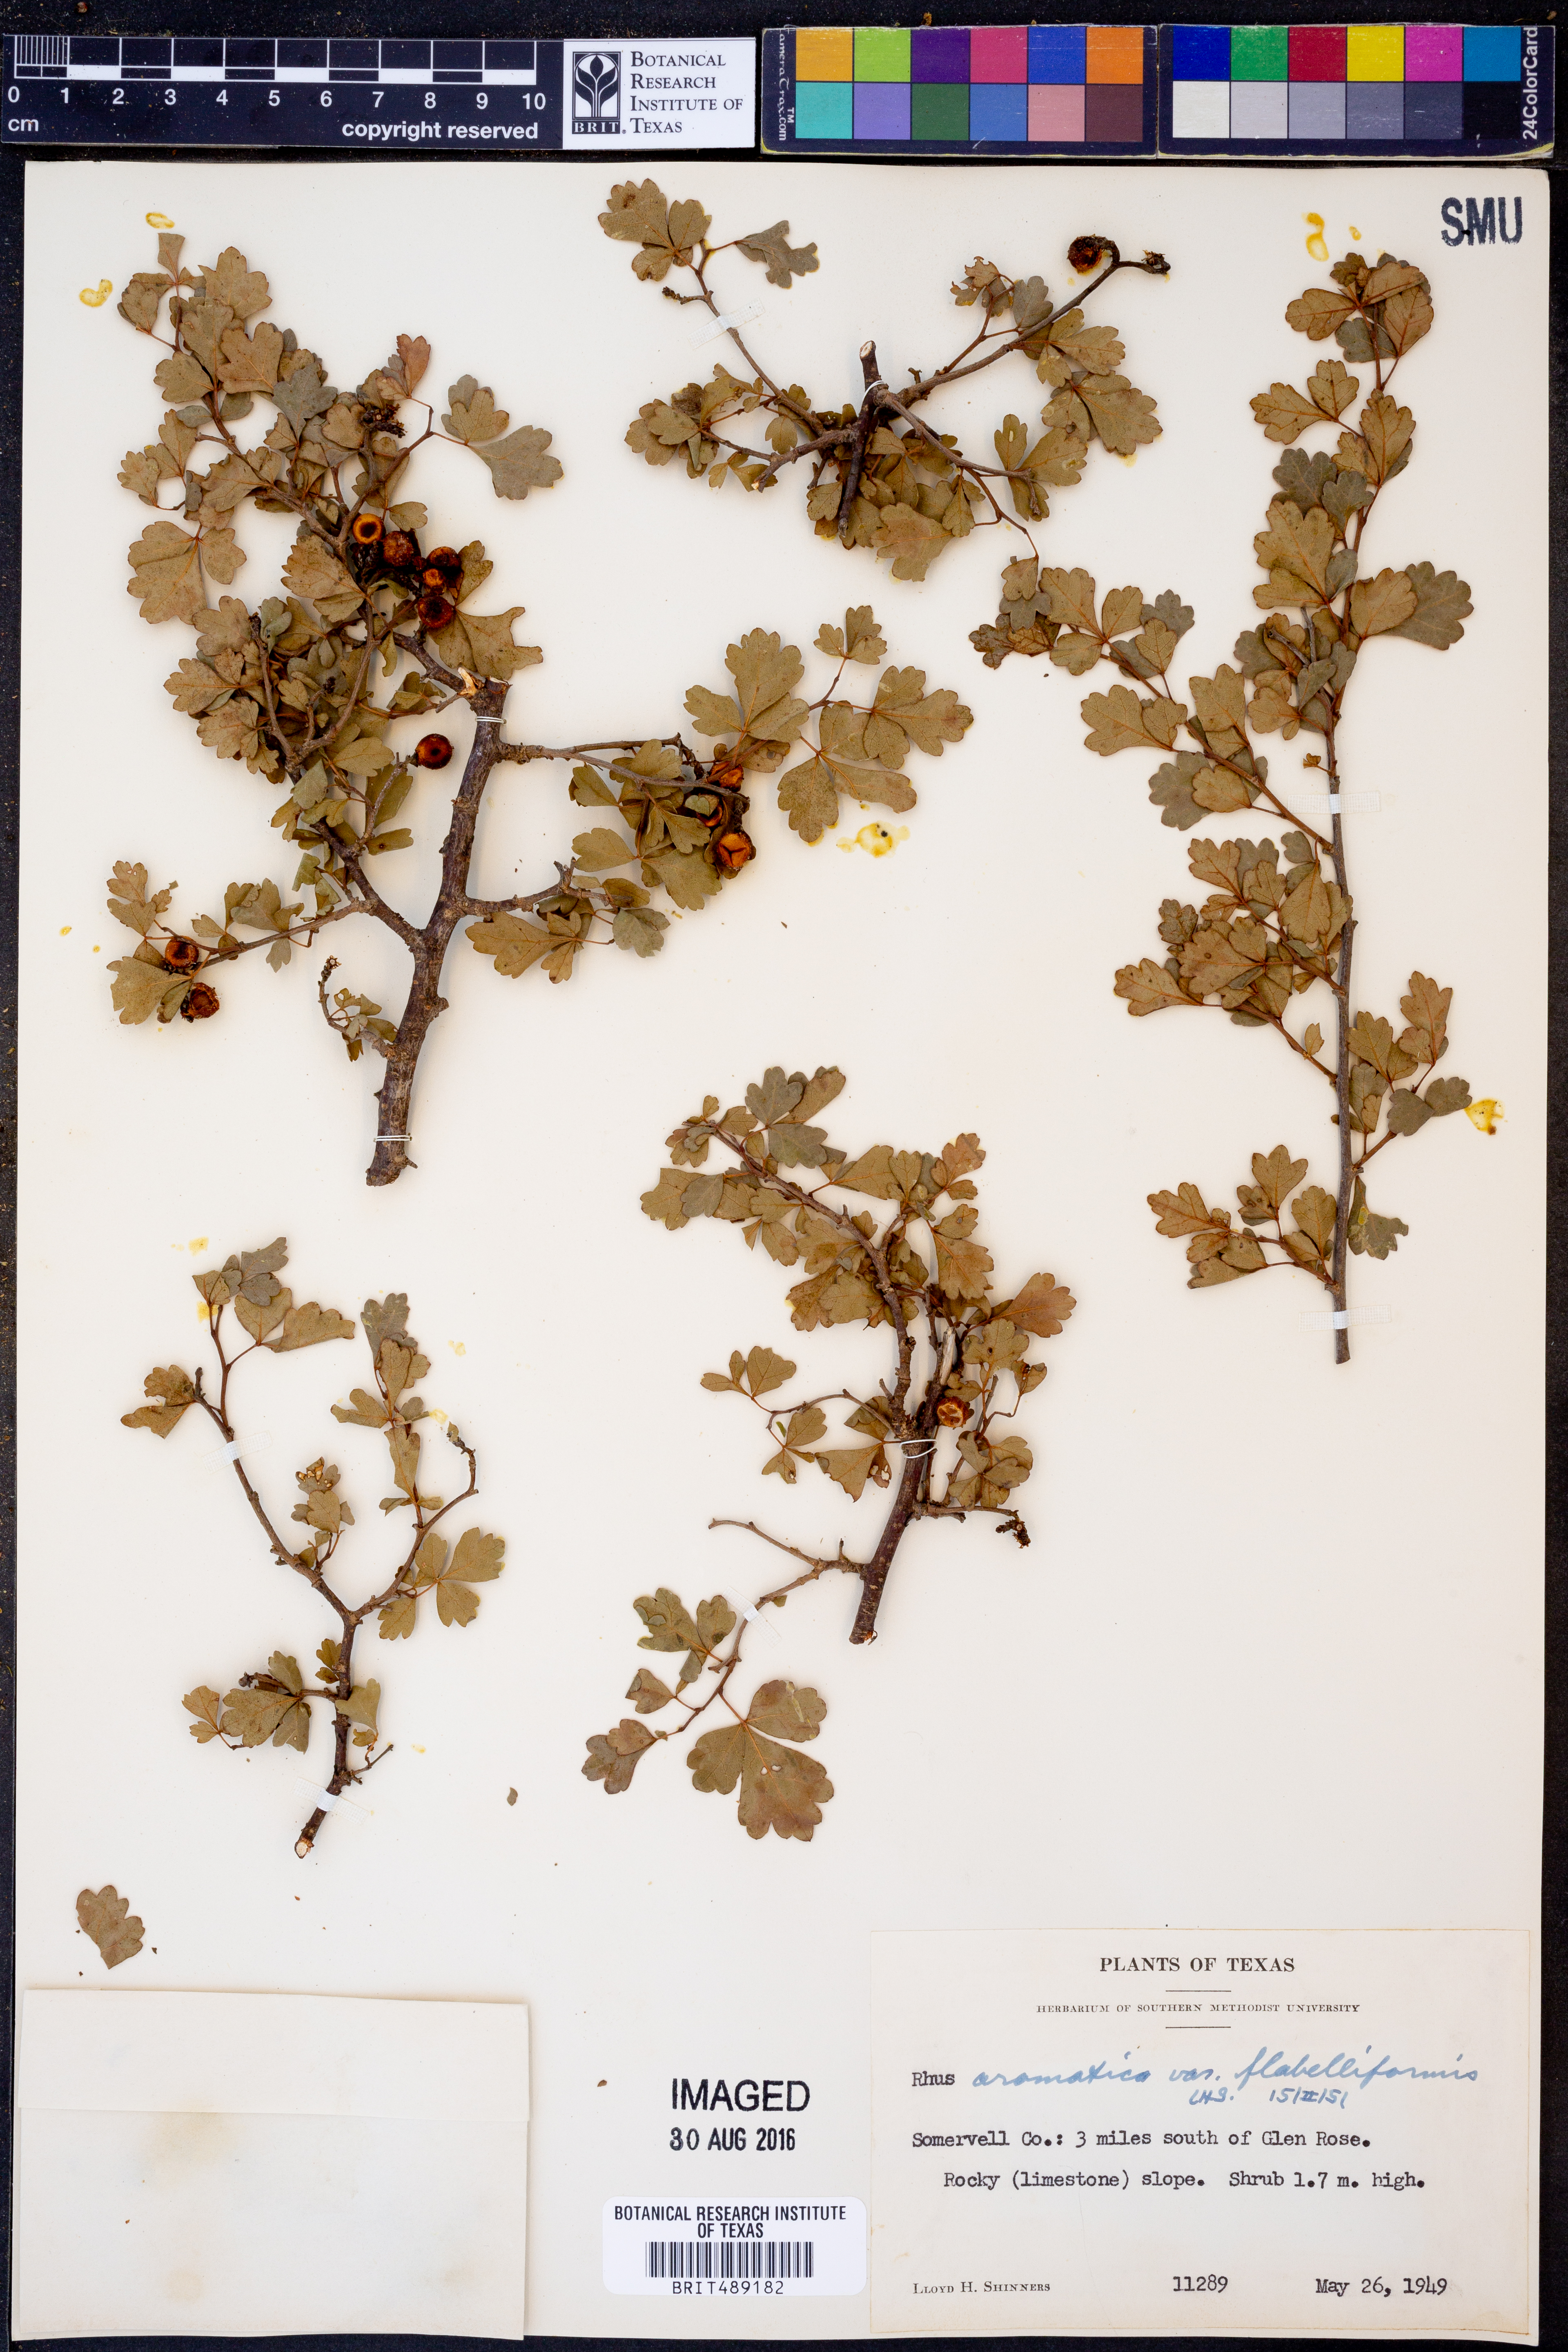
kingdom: Plantae
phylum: Tracheophyta
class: Magnoliopsida
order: Sapindales
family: Anacardiaceae
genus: Rhus
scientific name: Rhus trilobata
